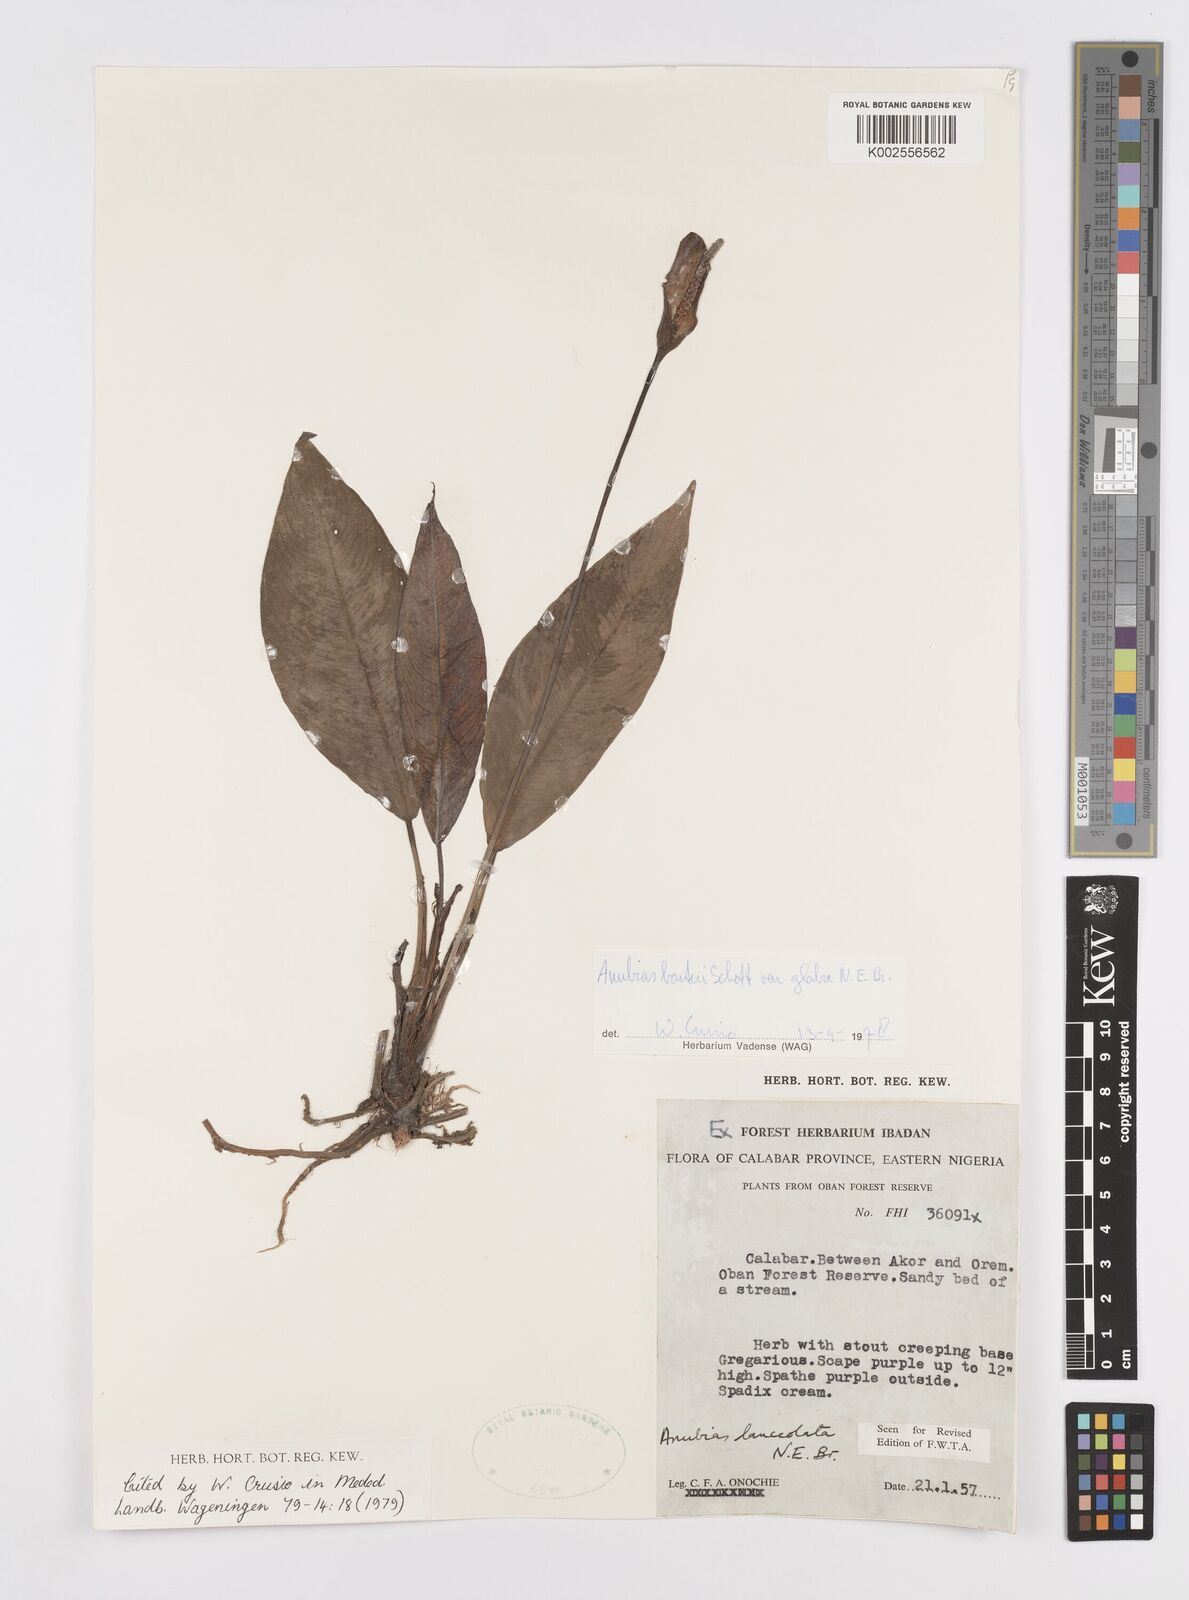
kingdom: Plantae
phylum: Tracheophyta
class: Liliopsida
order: Alismatales
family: Araceae
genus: Anubias
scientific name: Anubias barteri
